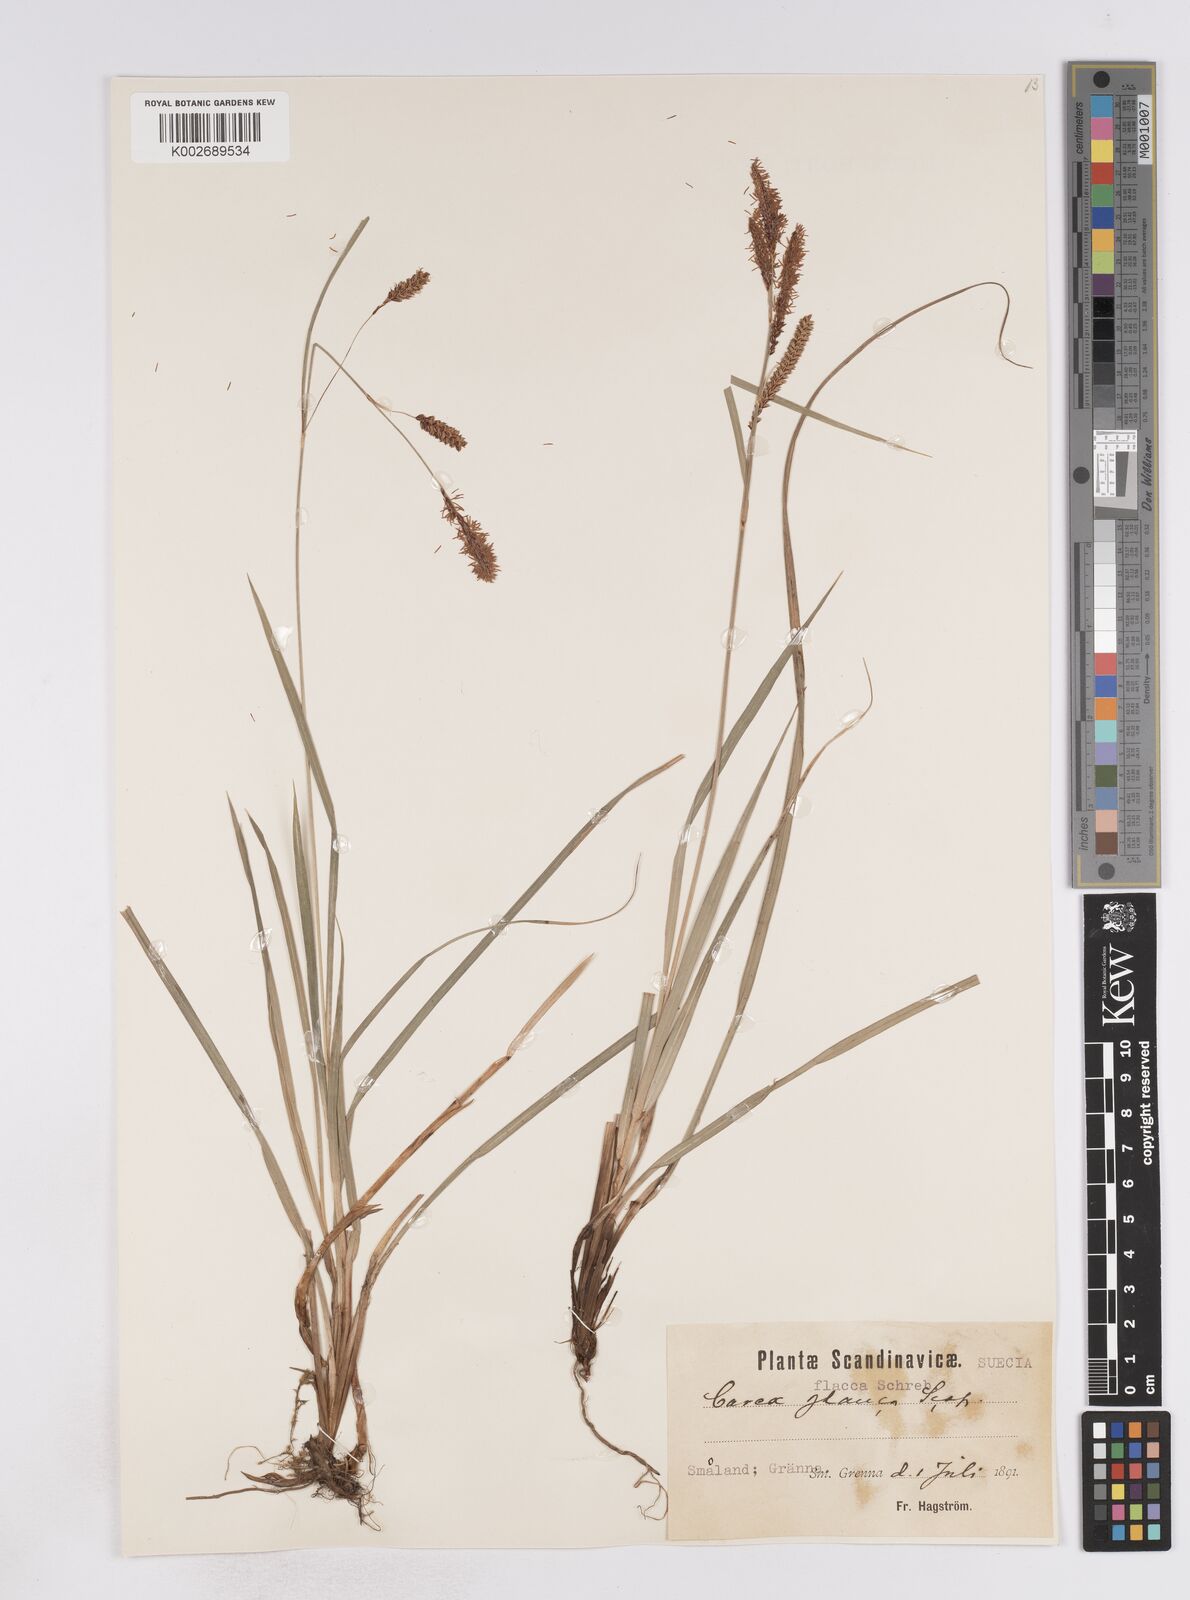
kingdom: Plantae
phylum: Tracheophyta
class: Liliopsida
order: Poales
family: Cyperaceae
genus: Carex
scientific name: Carex flacca
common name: Glaucous sedge
